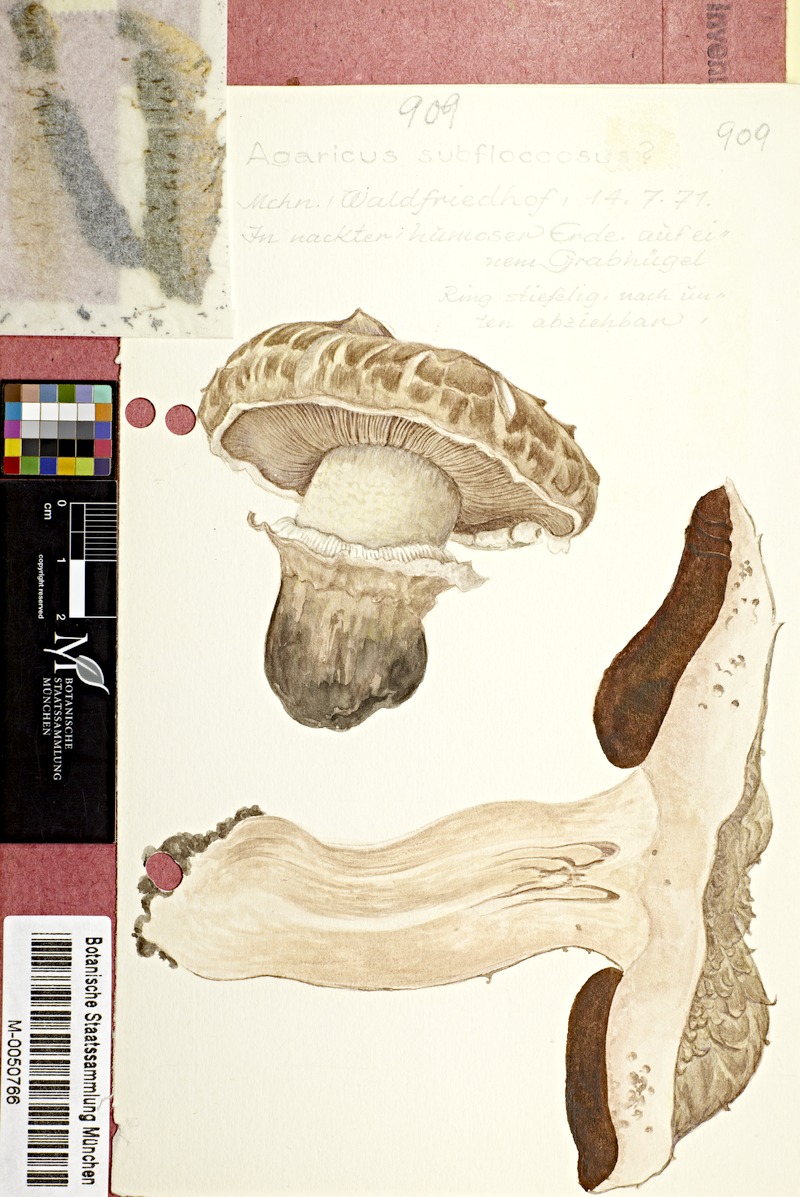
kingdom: Fungi
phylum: Basidiomycota
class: Agaricomycetes
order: Agaricales
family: Agaricaceae
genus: Agaricus
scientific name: Agaricus subfloccosus
